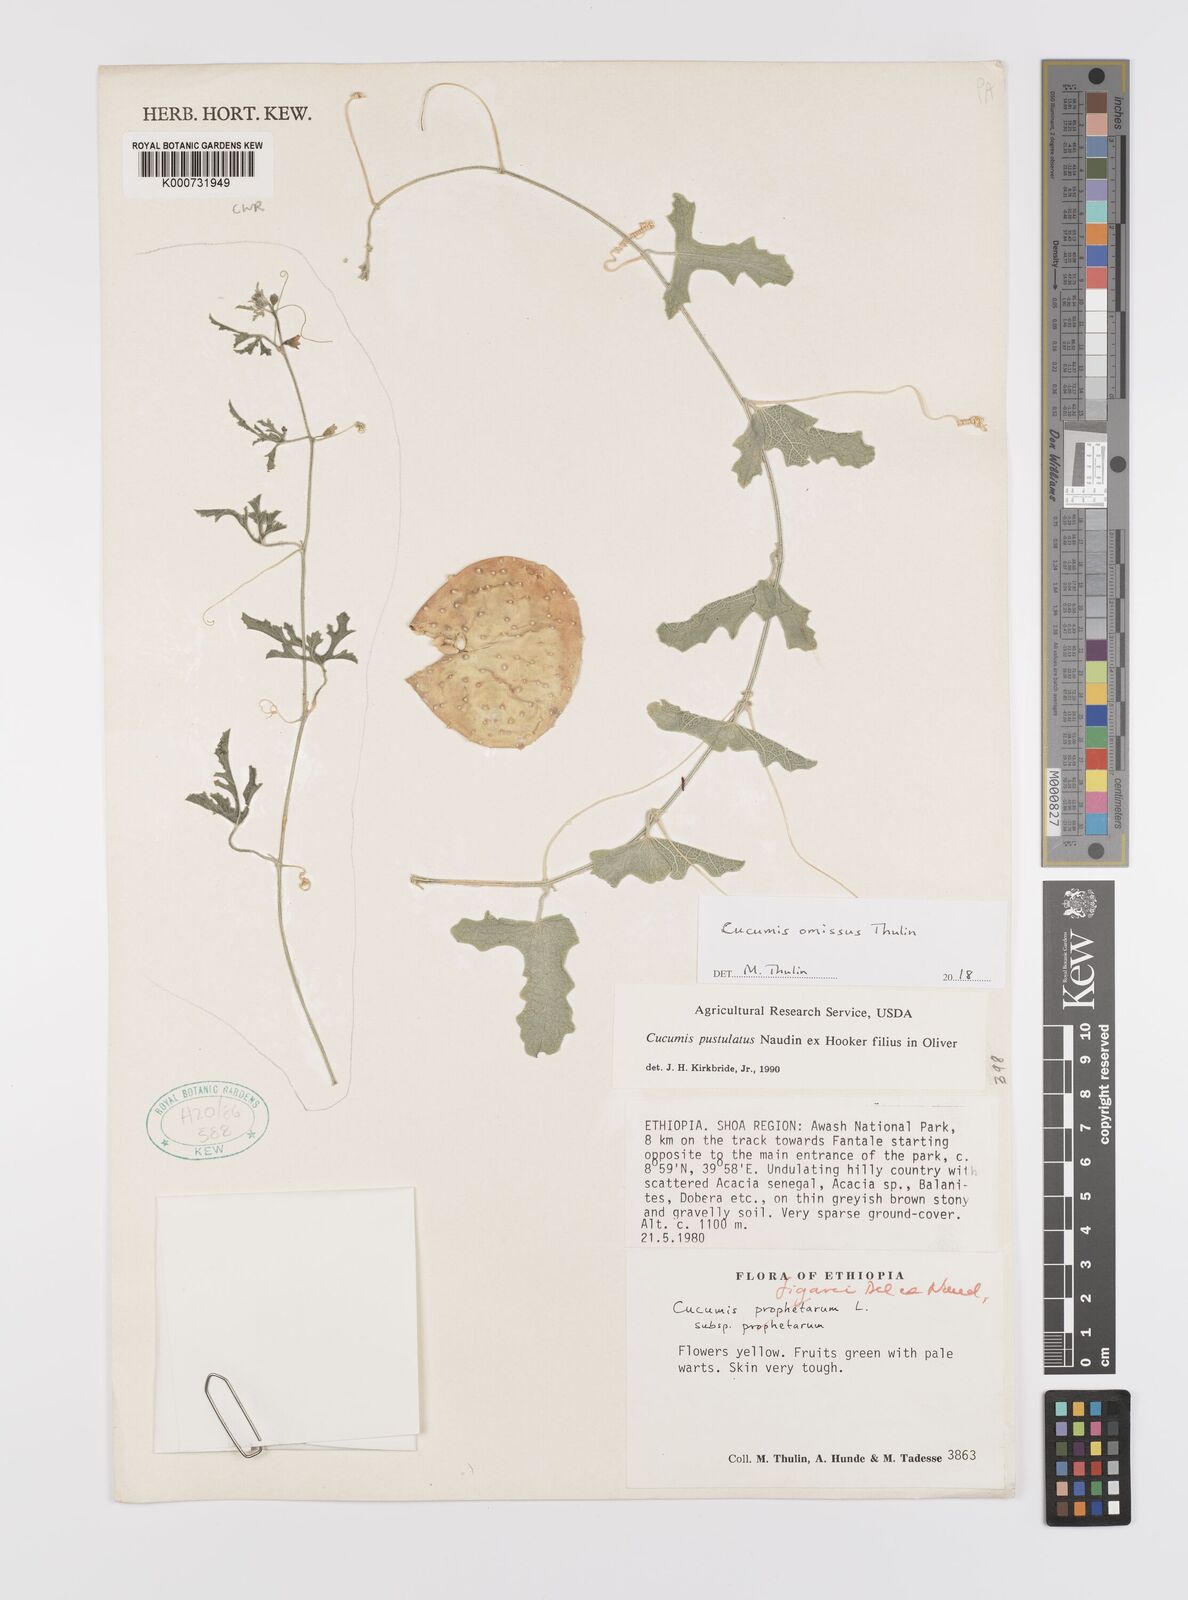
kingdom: Plantae
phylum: Tracheophyta
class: Magnoliopsida
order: Cucurbitales
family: Cucurbitaceae
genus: Cucumis
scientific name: Cucumis omissus
